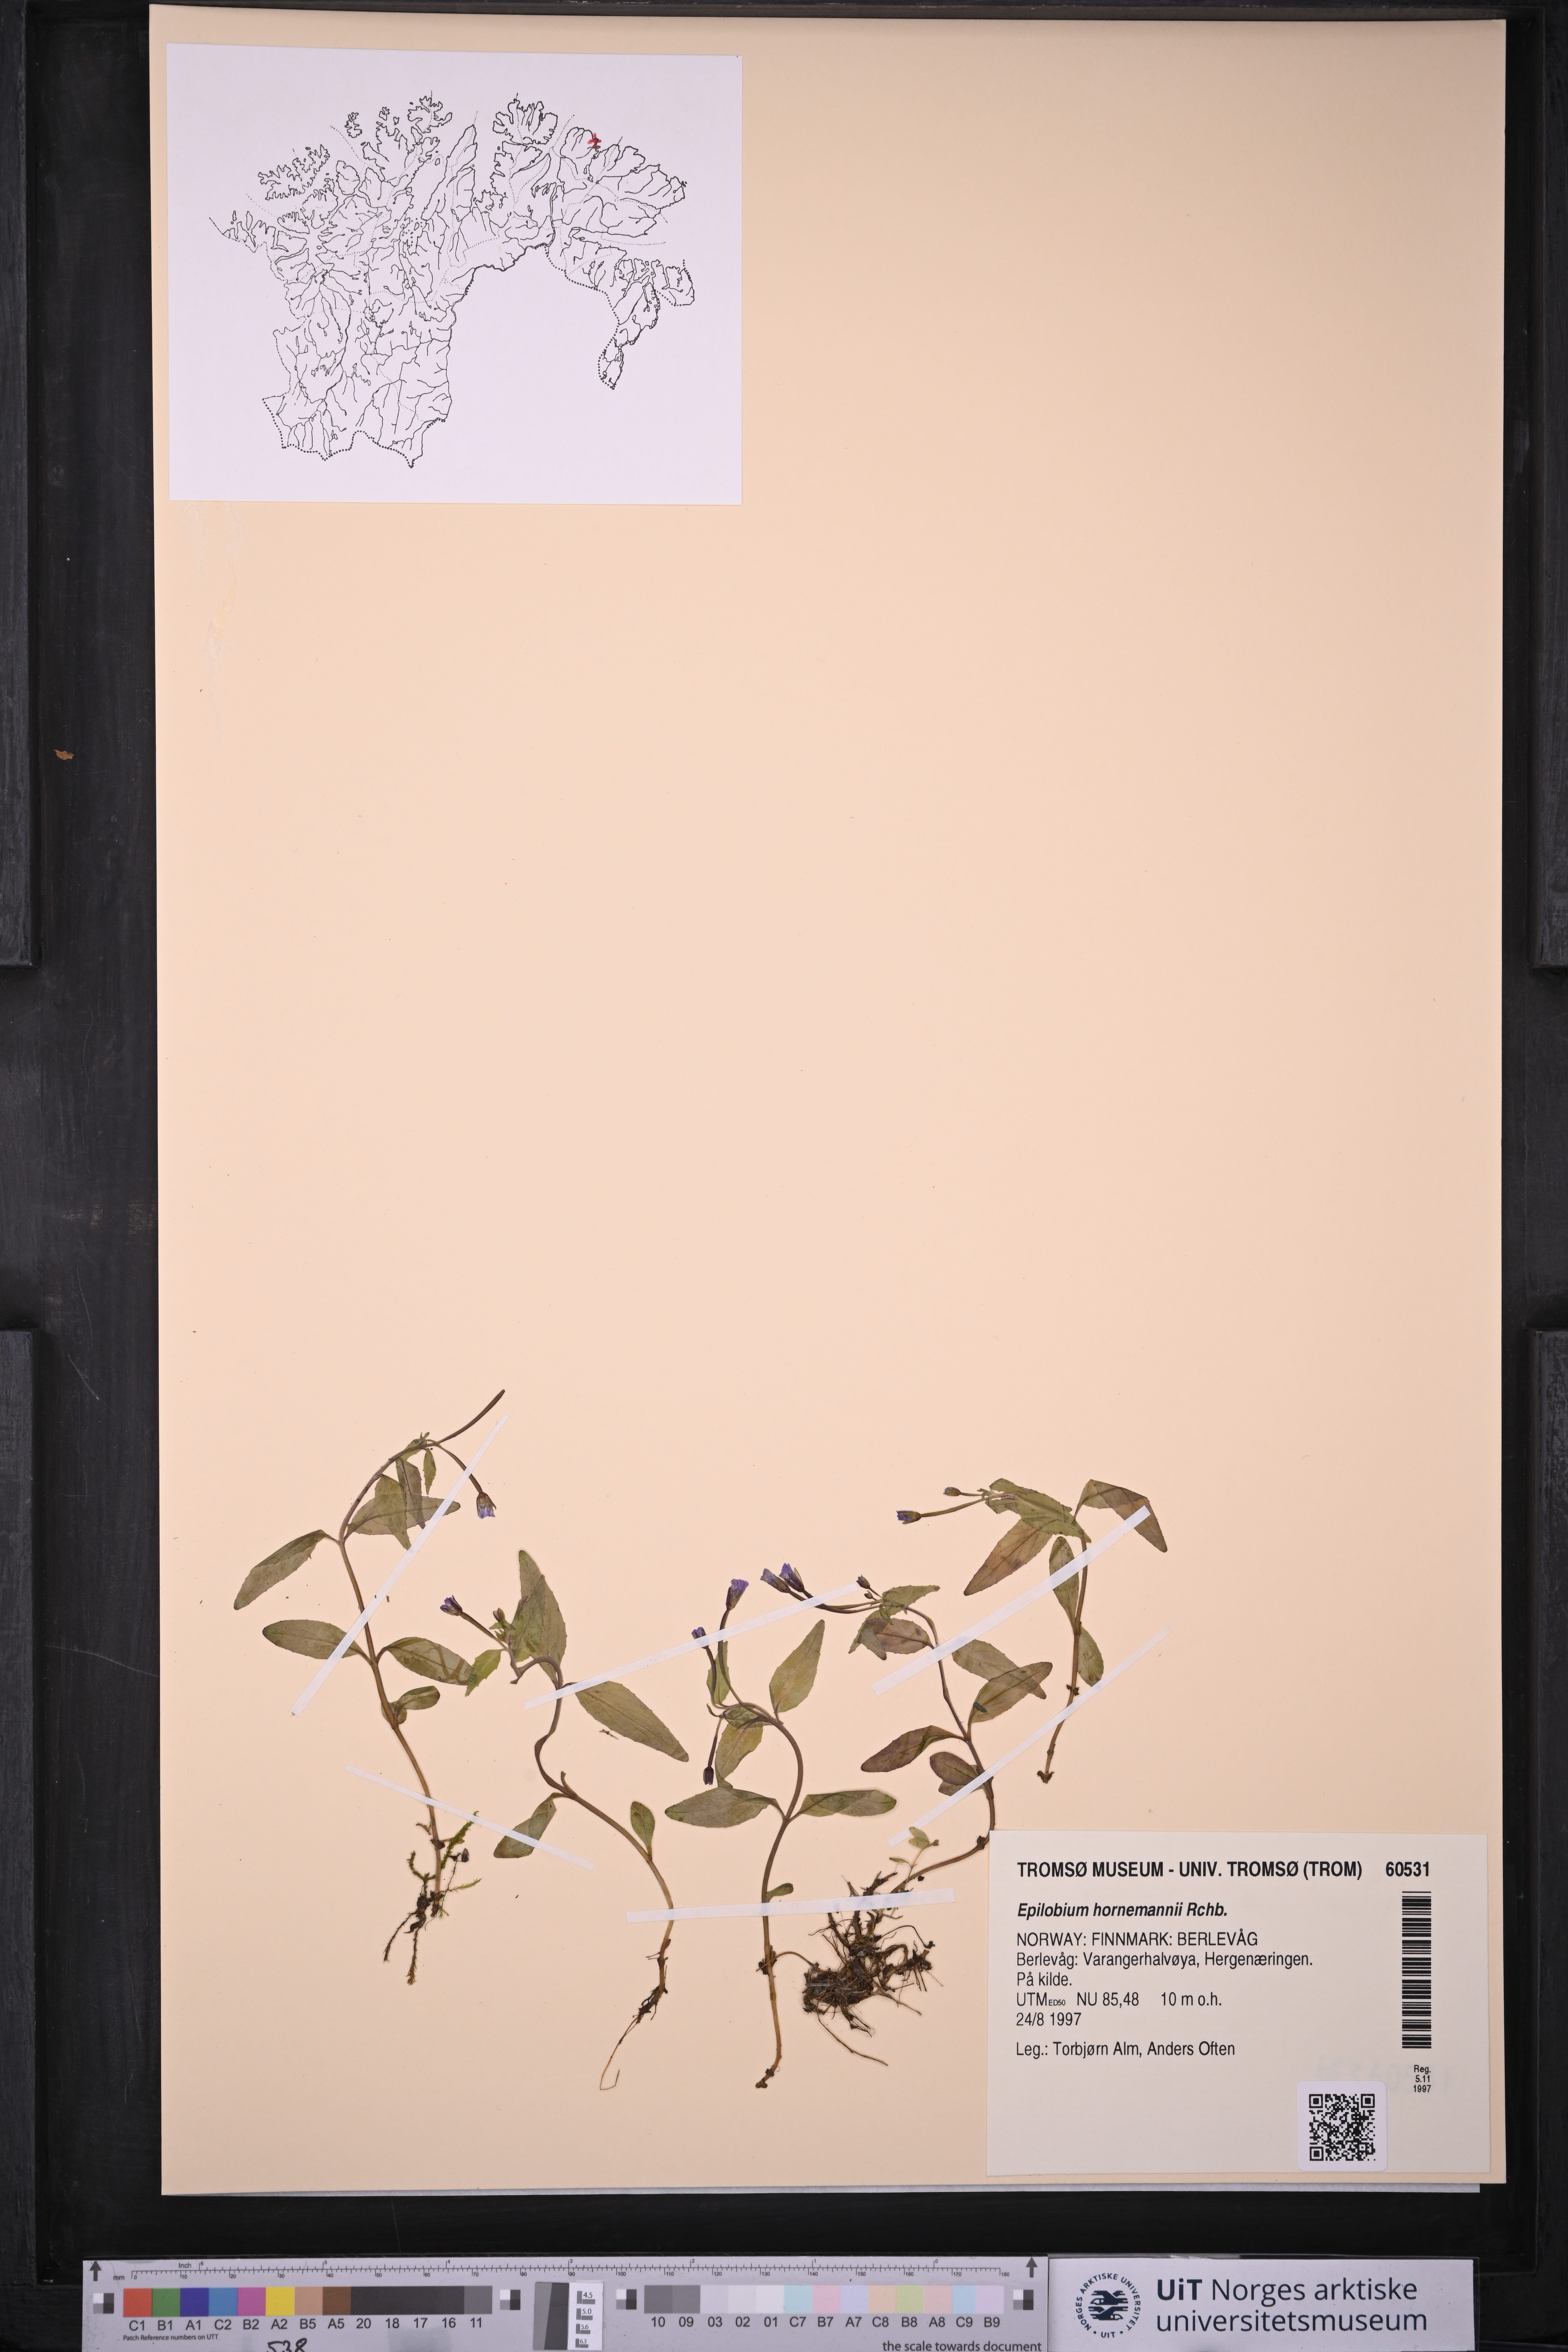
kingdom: Plantae
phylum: Tracheophyta
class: Magnoliopsida
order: Myrtales
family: Onagraceae
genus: Epilobium
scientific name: Epilobium hornemannii
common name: Hornemann's willowherb
